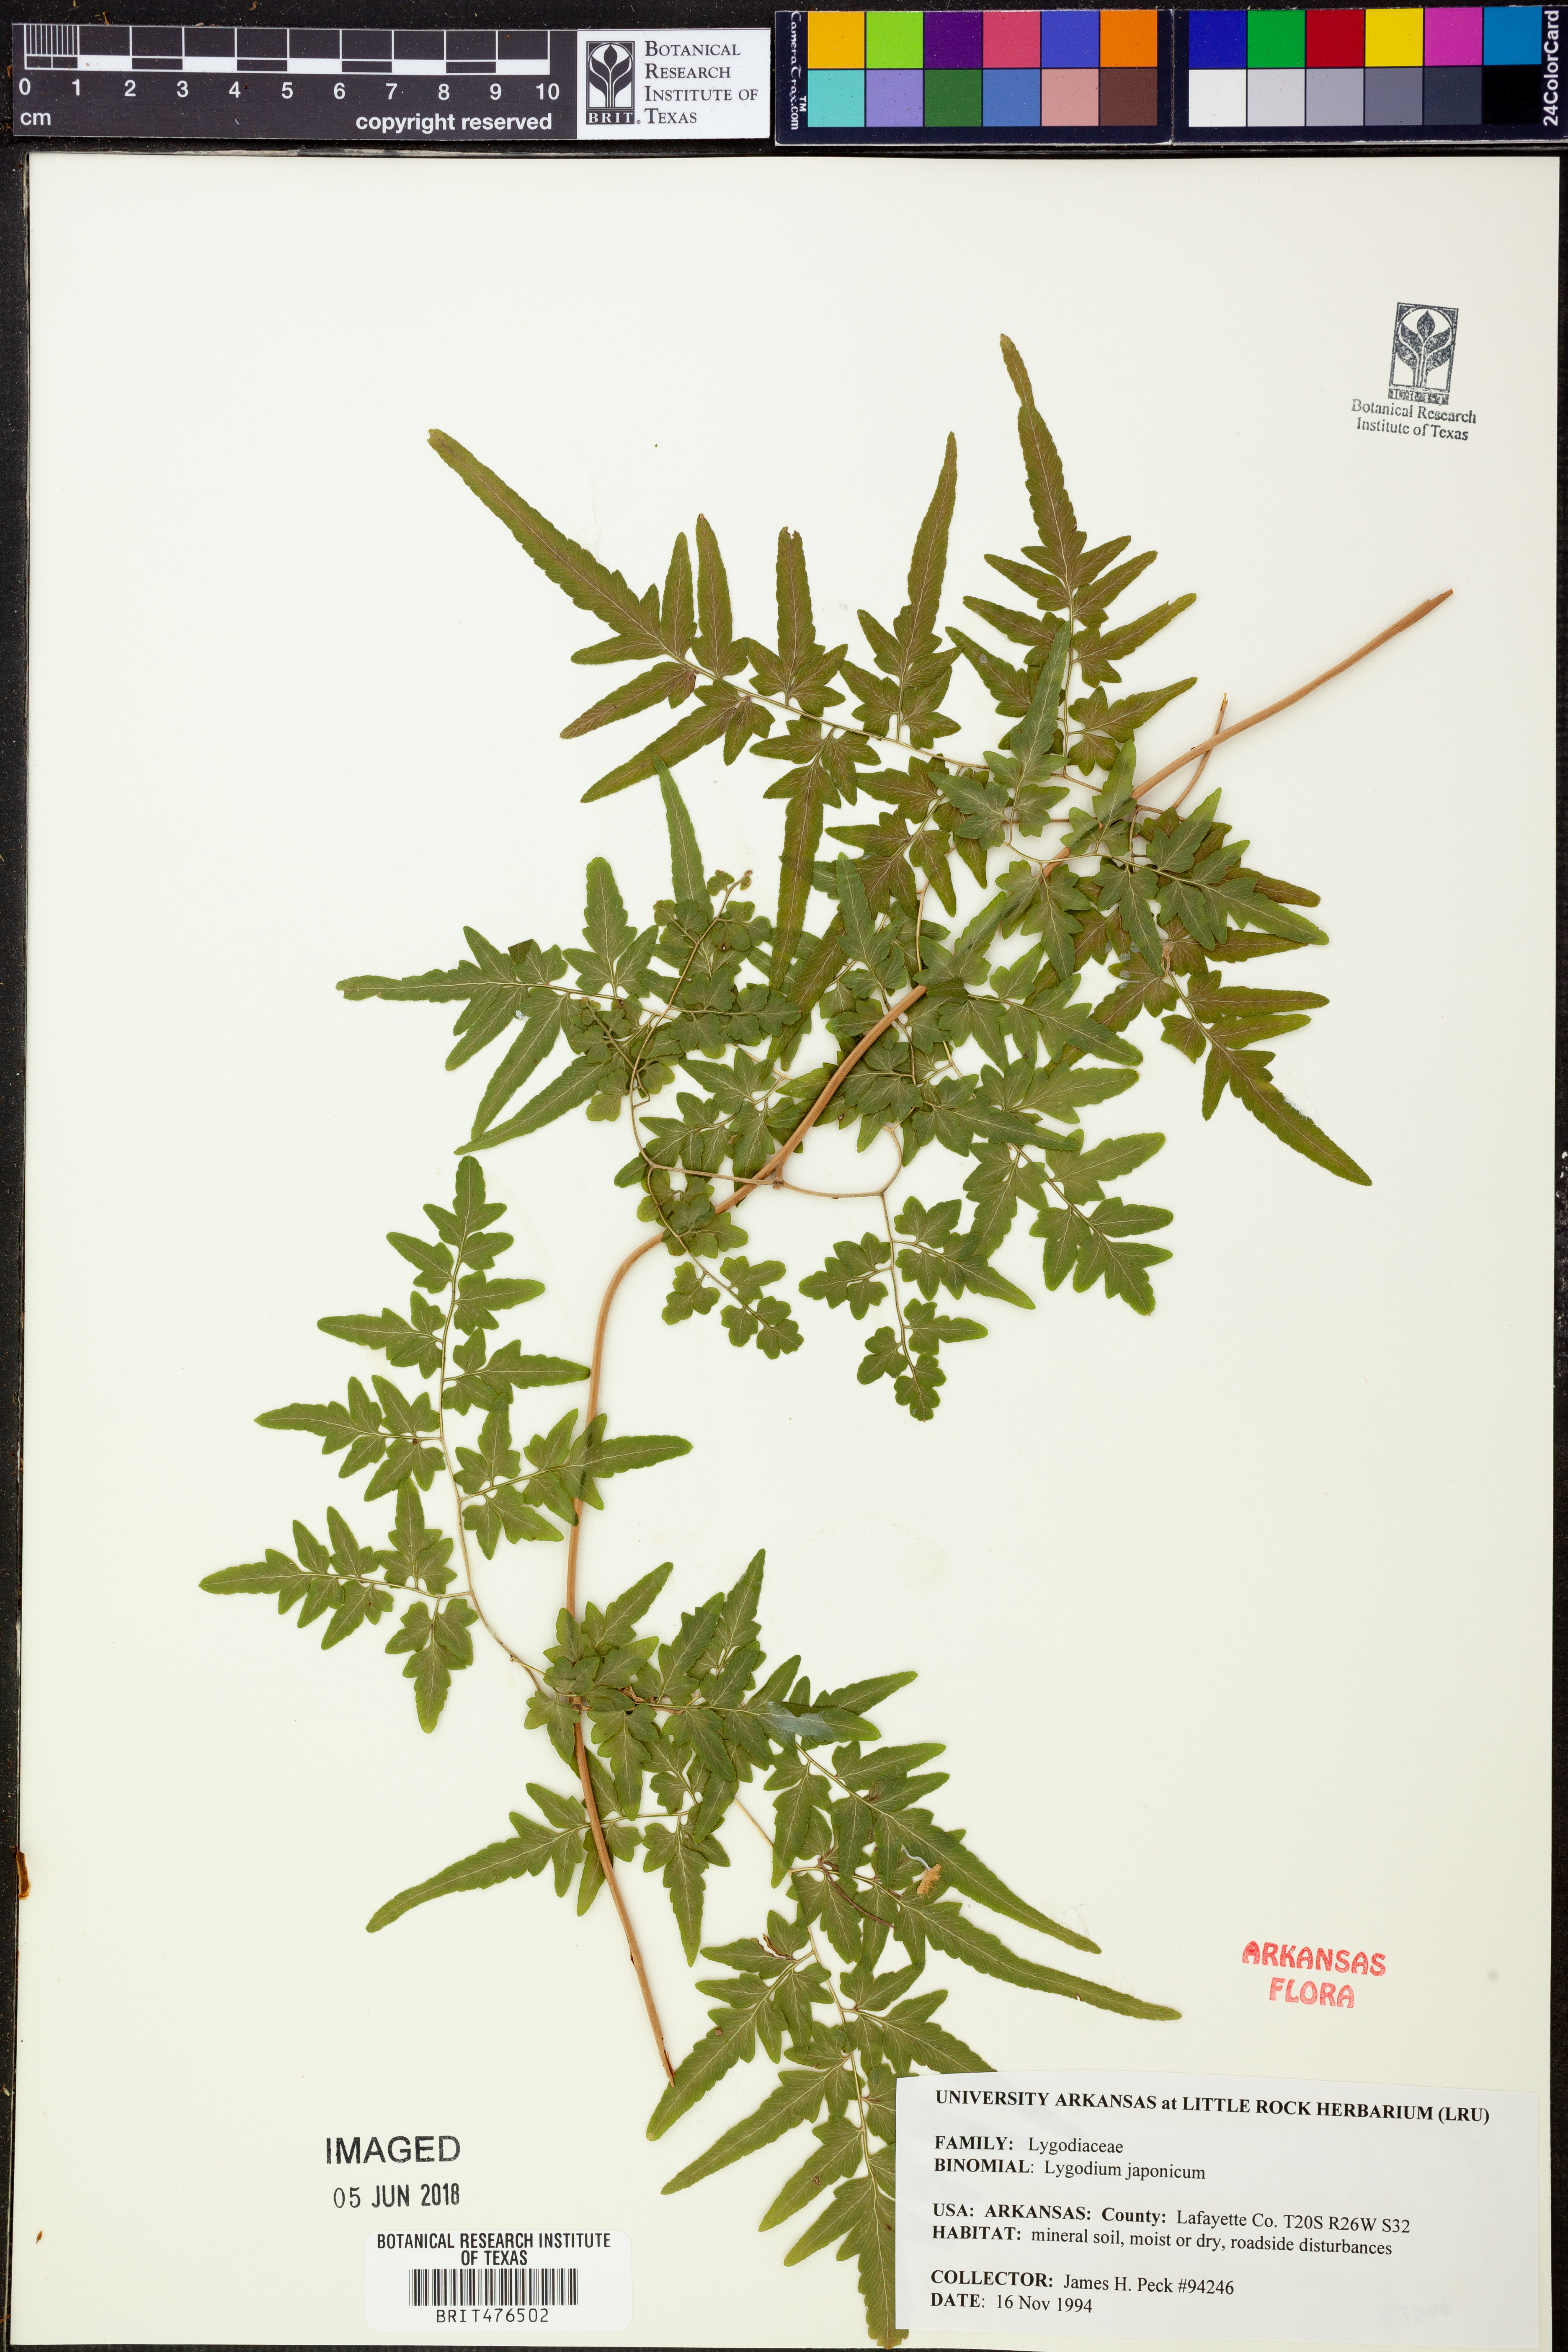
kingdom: Plantae
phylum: Tracheophyta
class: Polypodiopsida
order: Schizaeales
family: Lygodiaceae
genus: Lygodium
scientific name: Lygodium japonicum
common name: Japanese climbing fern
